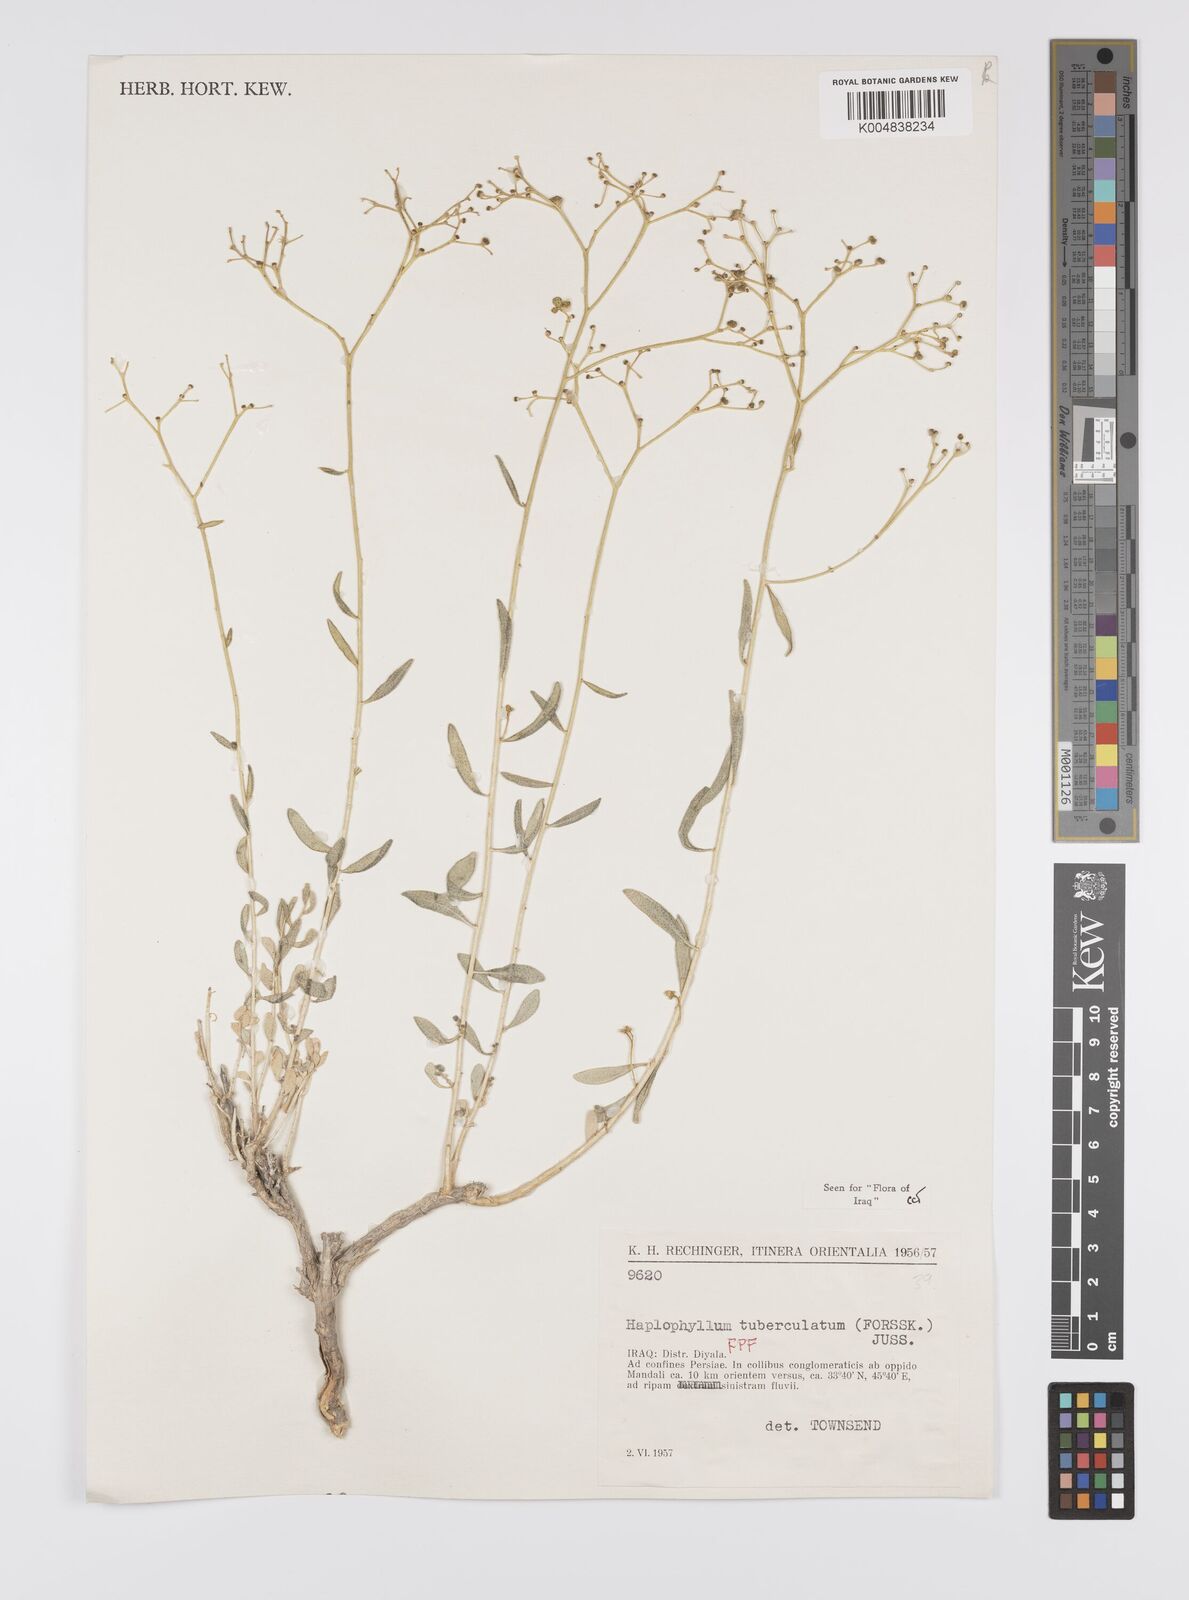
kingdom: Plantae
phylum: Tracheophyta
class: Magnoliopsida
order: Sapindales
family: Rutaceae
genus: Haplophyllum
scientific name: Haplophyllum tuberculatum
